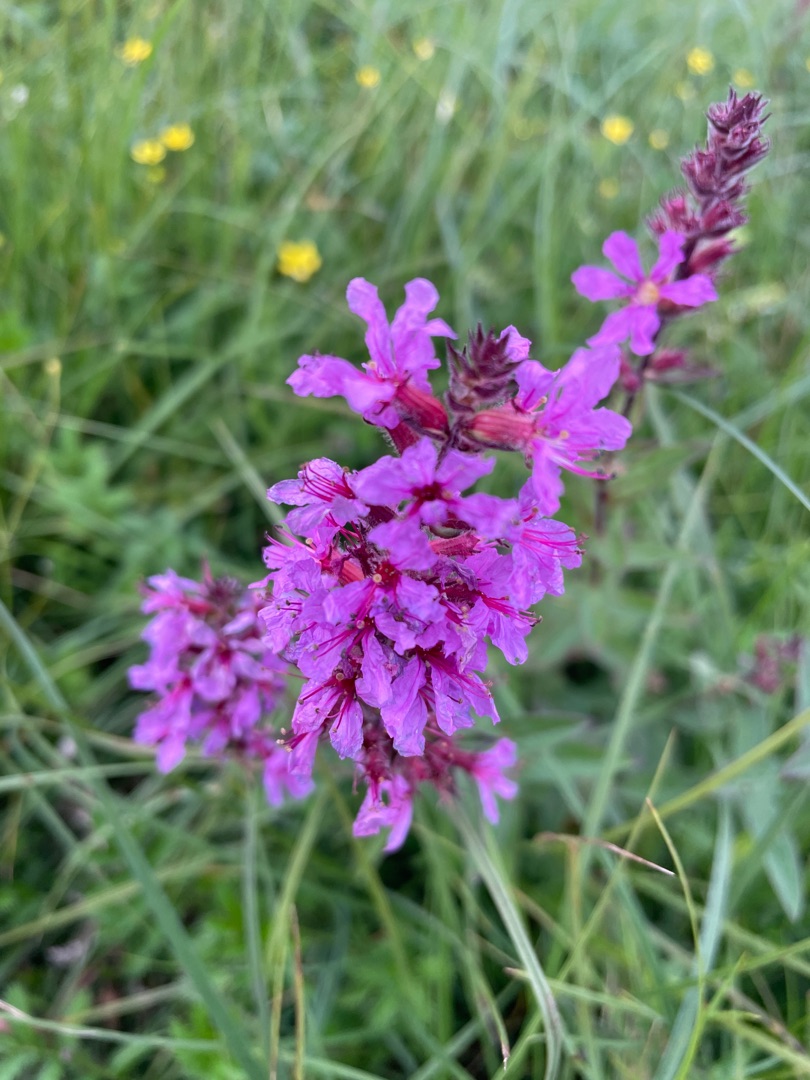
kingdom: Plantae
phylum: Tracheophyta
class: Magnoliopsida
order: Myrtales
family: Lythraceae
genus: Lythrum
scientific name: Lythrum salicaria
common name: Kattehale
